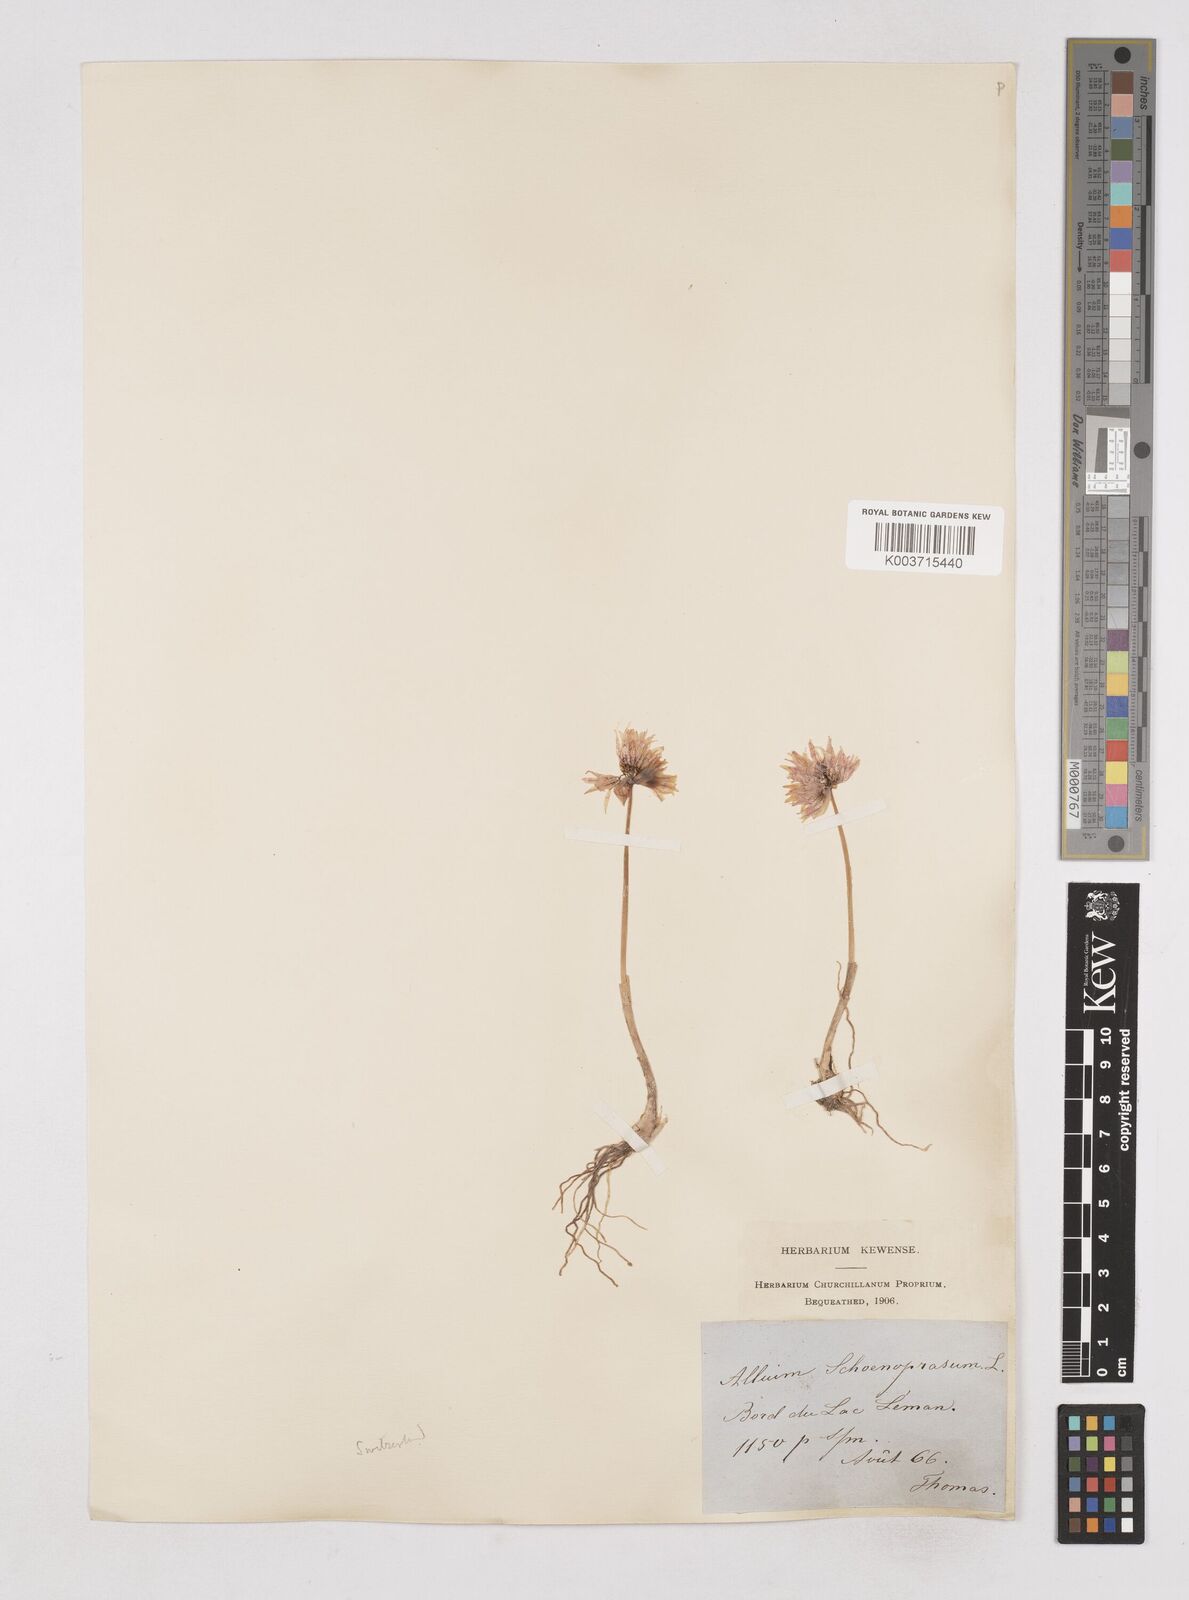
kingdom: Plantae
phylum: Tracheophyta
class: Liliopsida
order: Asparagales
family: Amaryllidaceae
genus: Allium
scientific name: Allium schoenoprasum
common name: Chives
